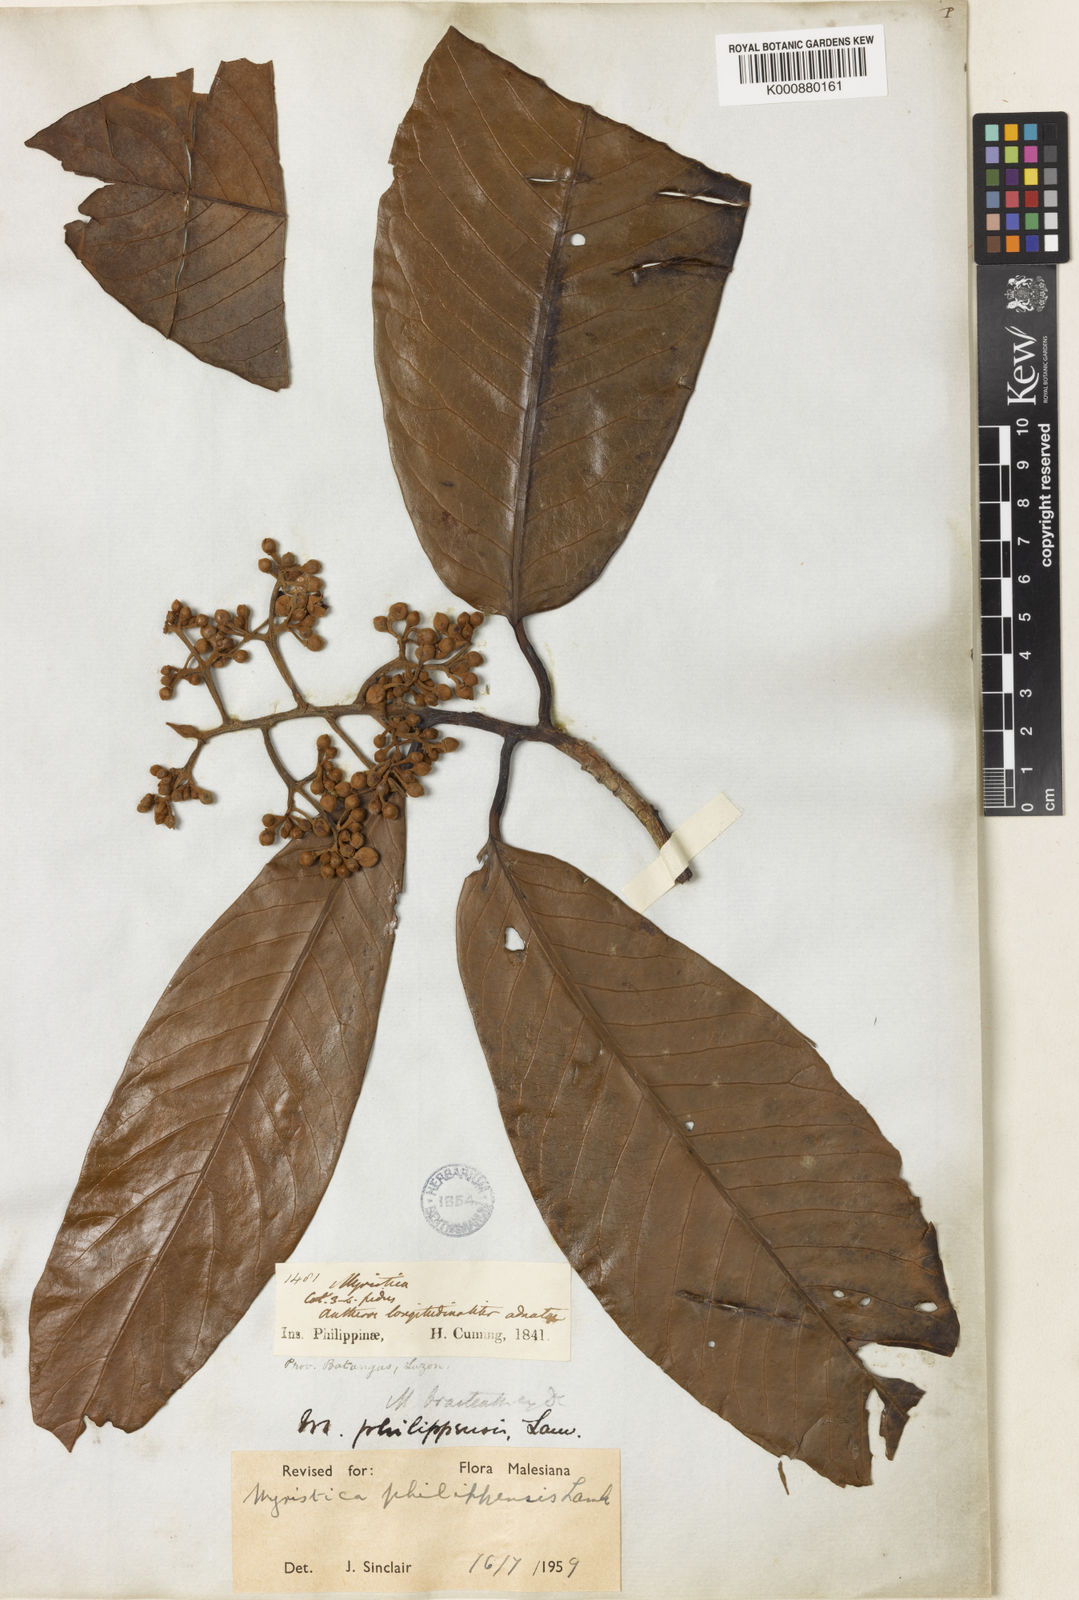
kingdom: Plantae
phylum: Tracheophyta
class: Magnoliopsida
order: Magnoliales
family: Myristicaceae
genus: Myristica
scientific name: Myristica philippensis
